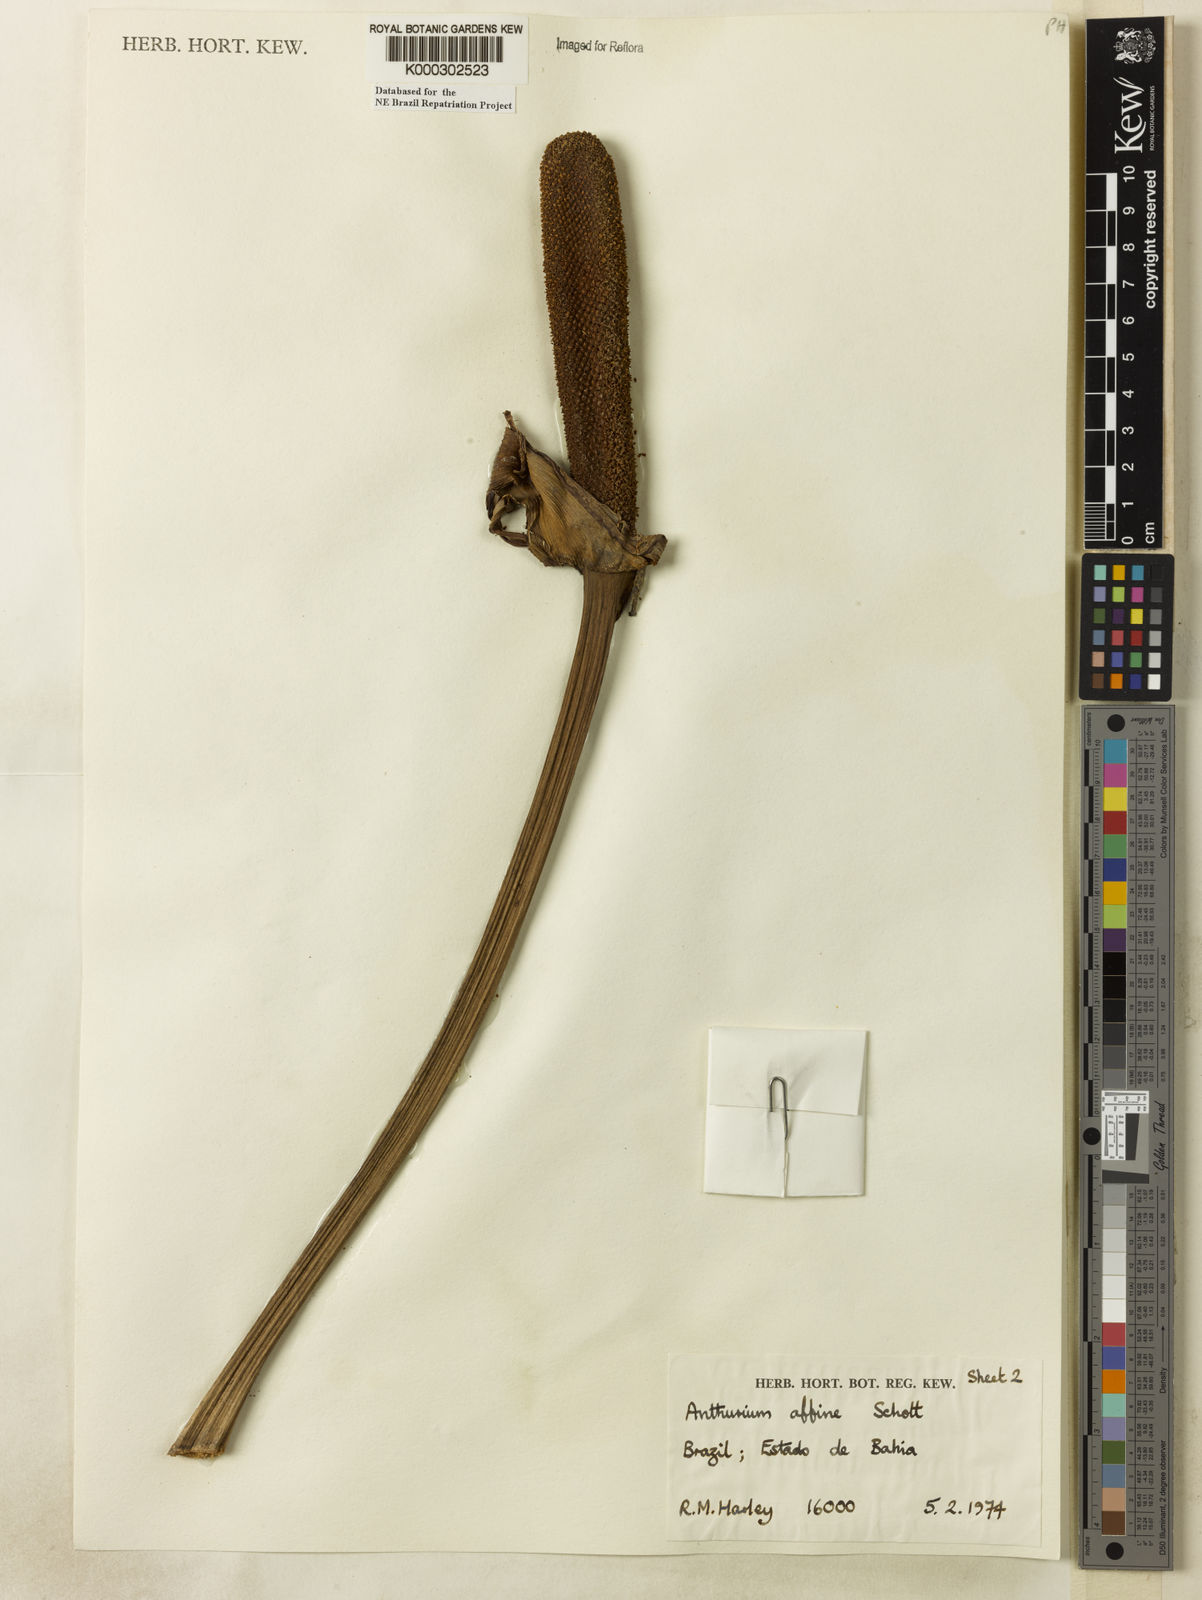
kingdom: Plantae
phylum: Tracheophyta
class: Liliopsida
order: Alismatales
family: Araceae
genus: Anthurium
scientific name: Anthurium affine
